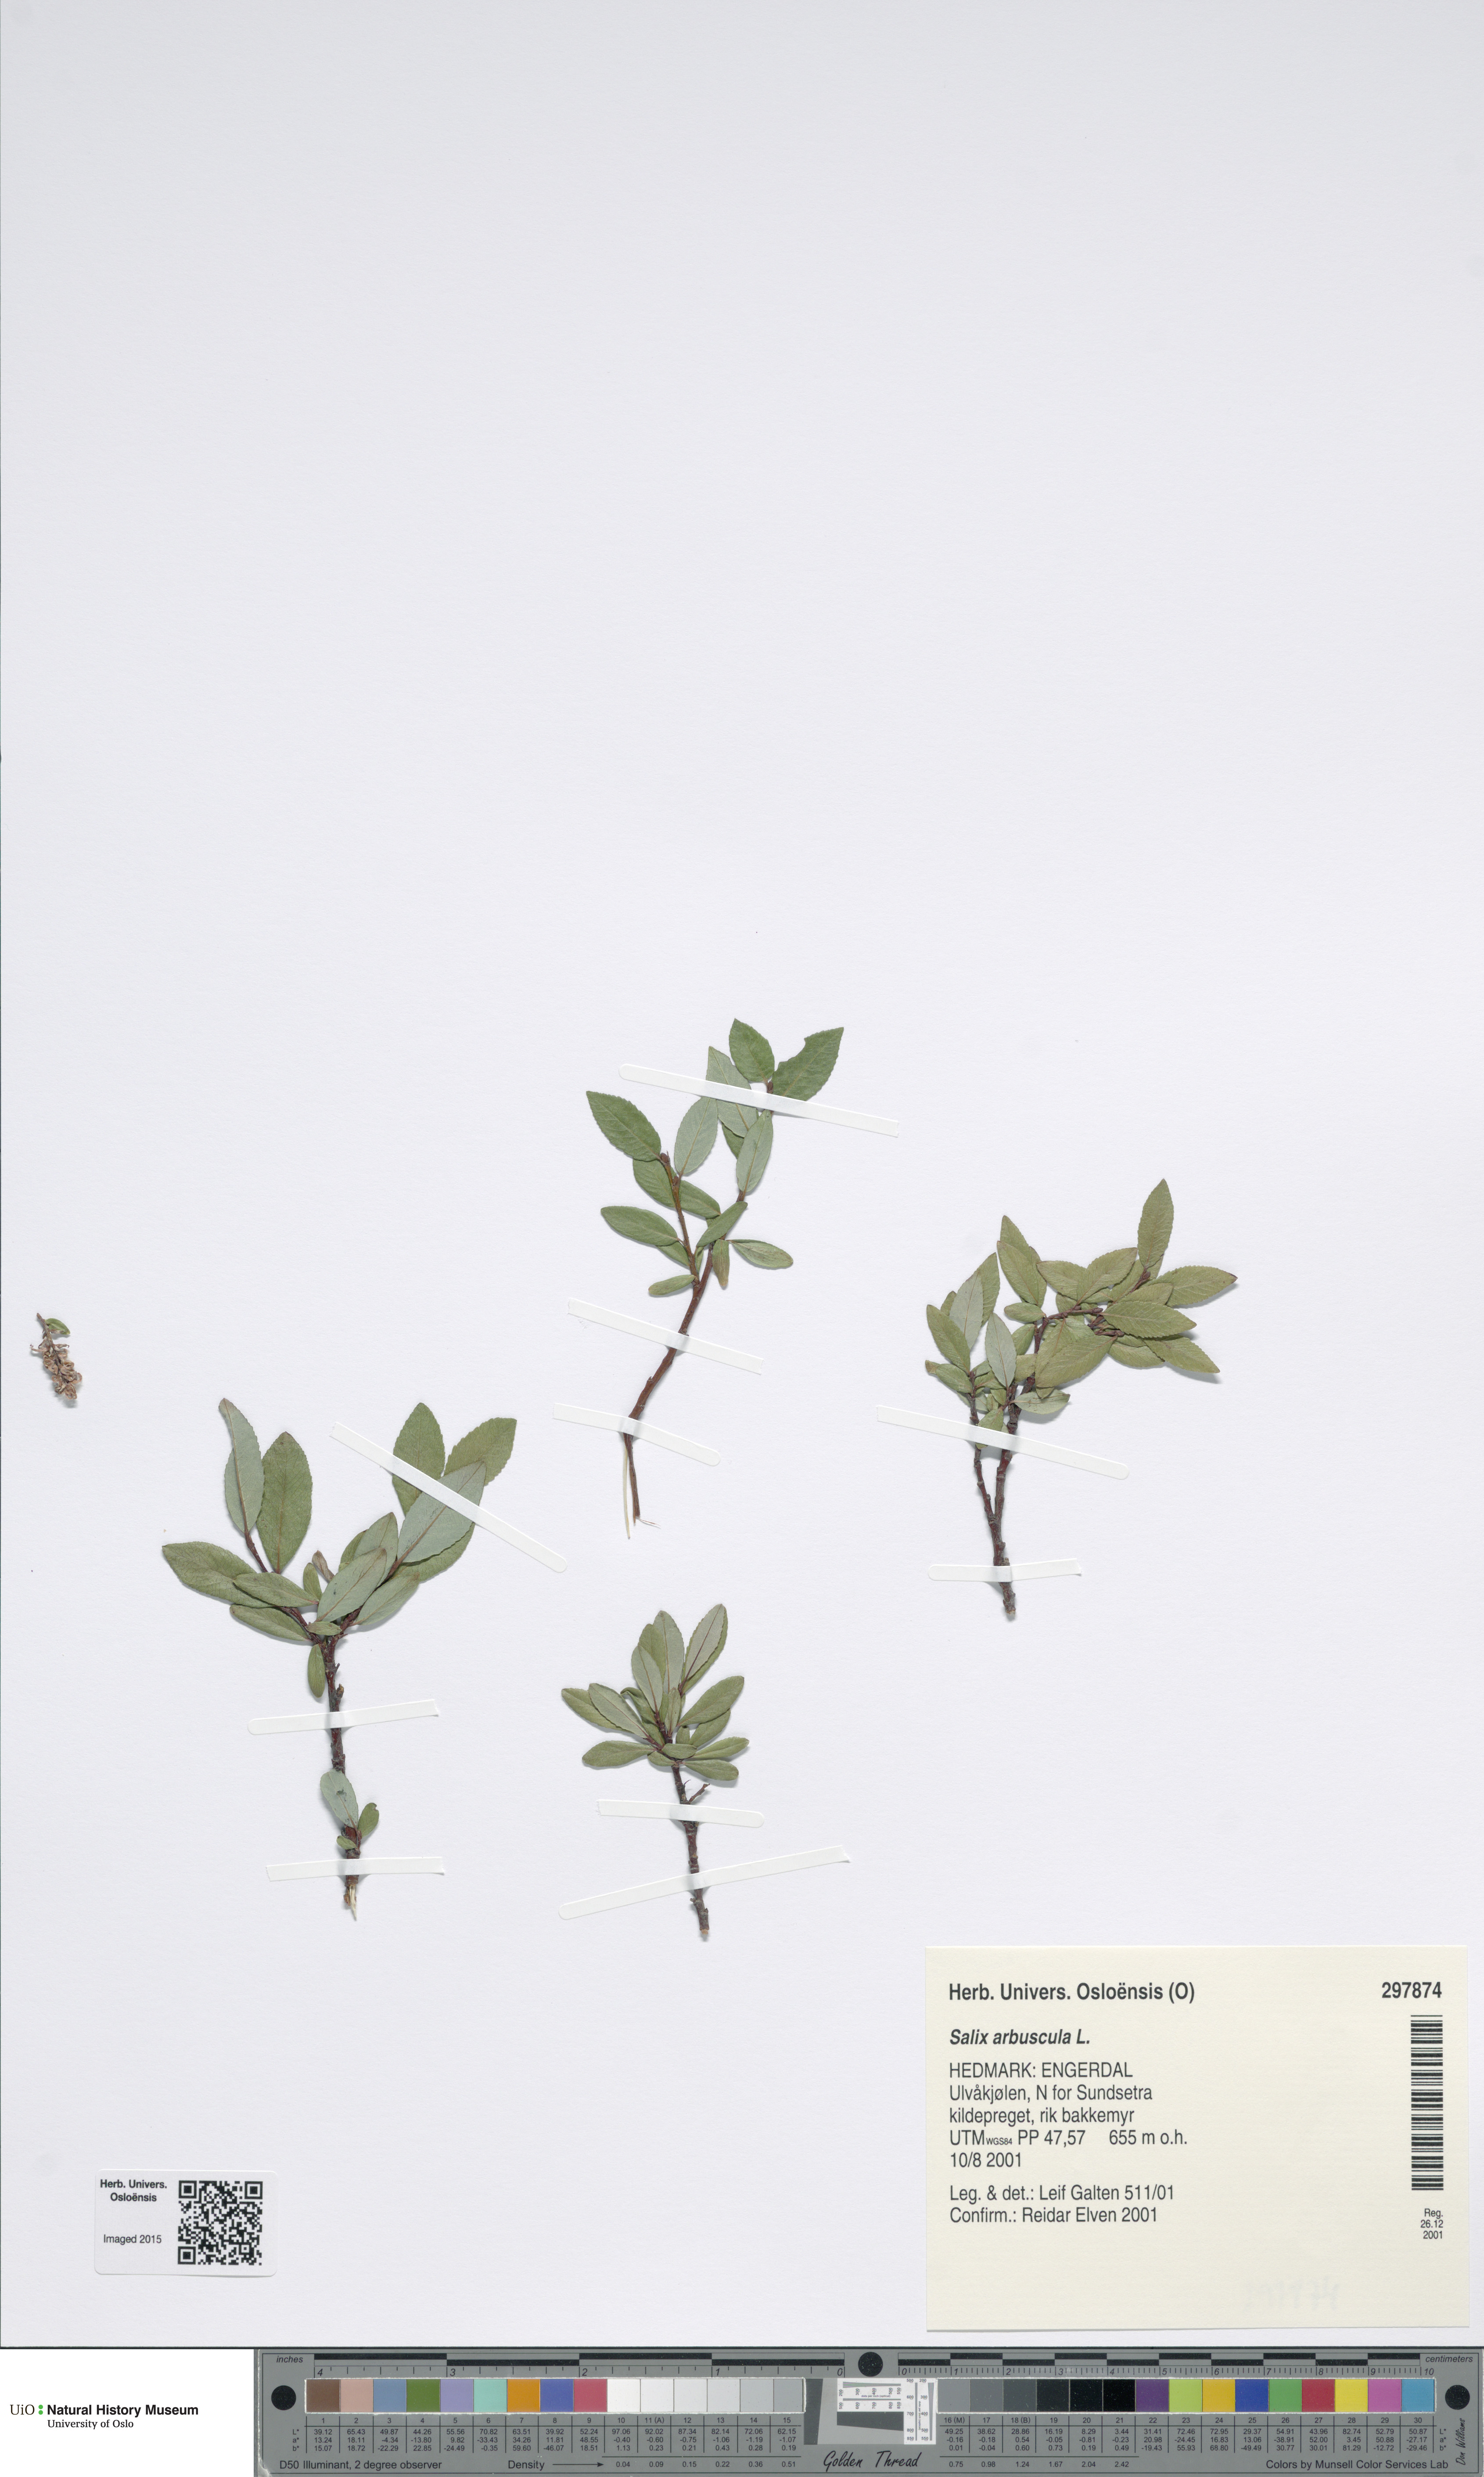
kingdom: Plantae
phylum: Tracheophyta
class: Magnoliopsida
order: Malpighiales
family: Salicaceae
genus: Salix
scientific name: Salix arbuscula
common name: Mountain willow
